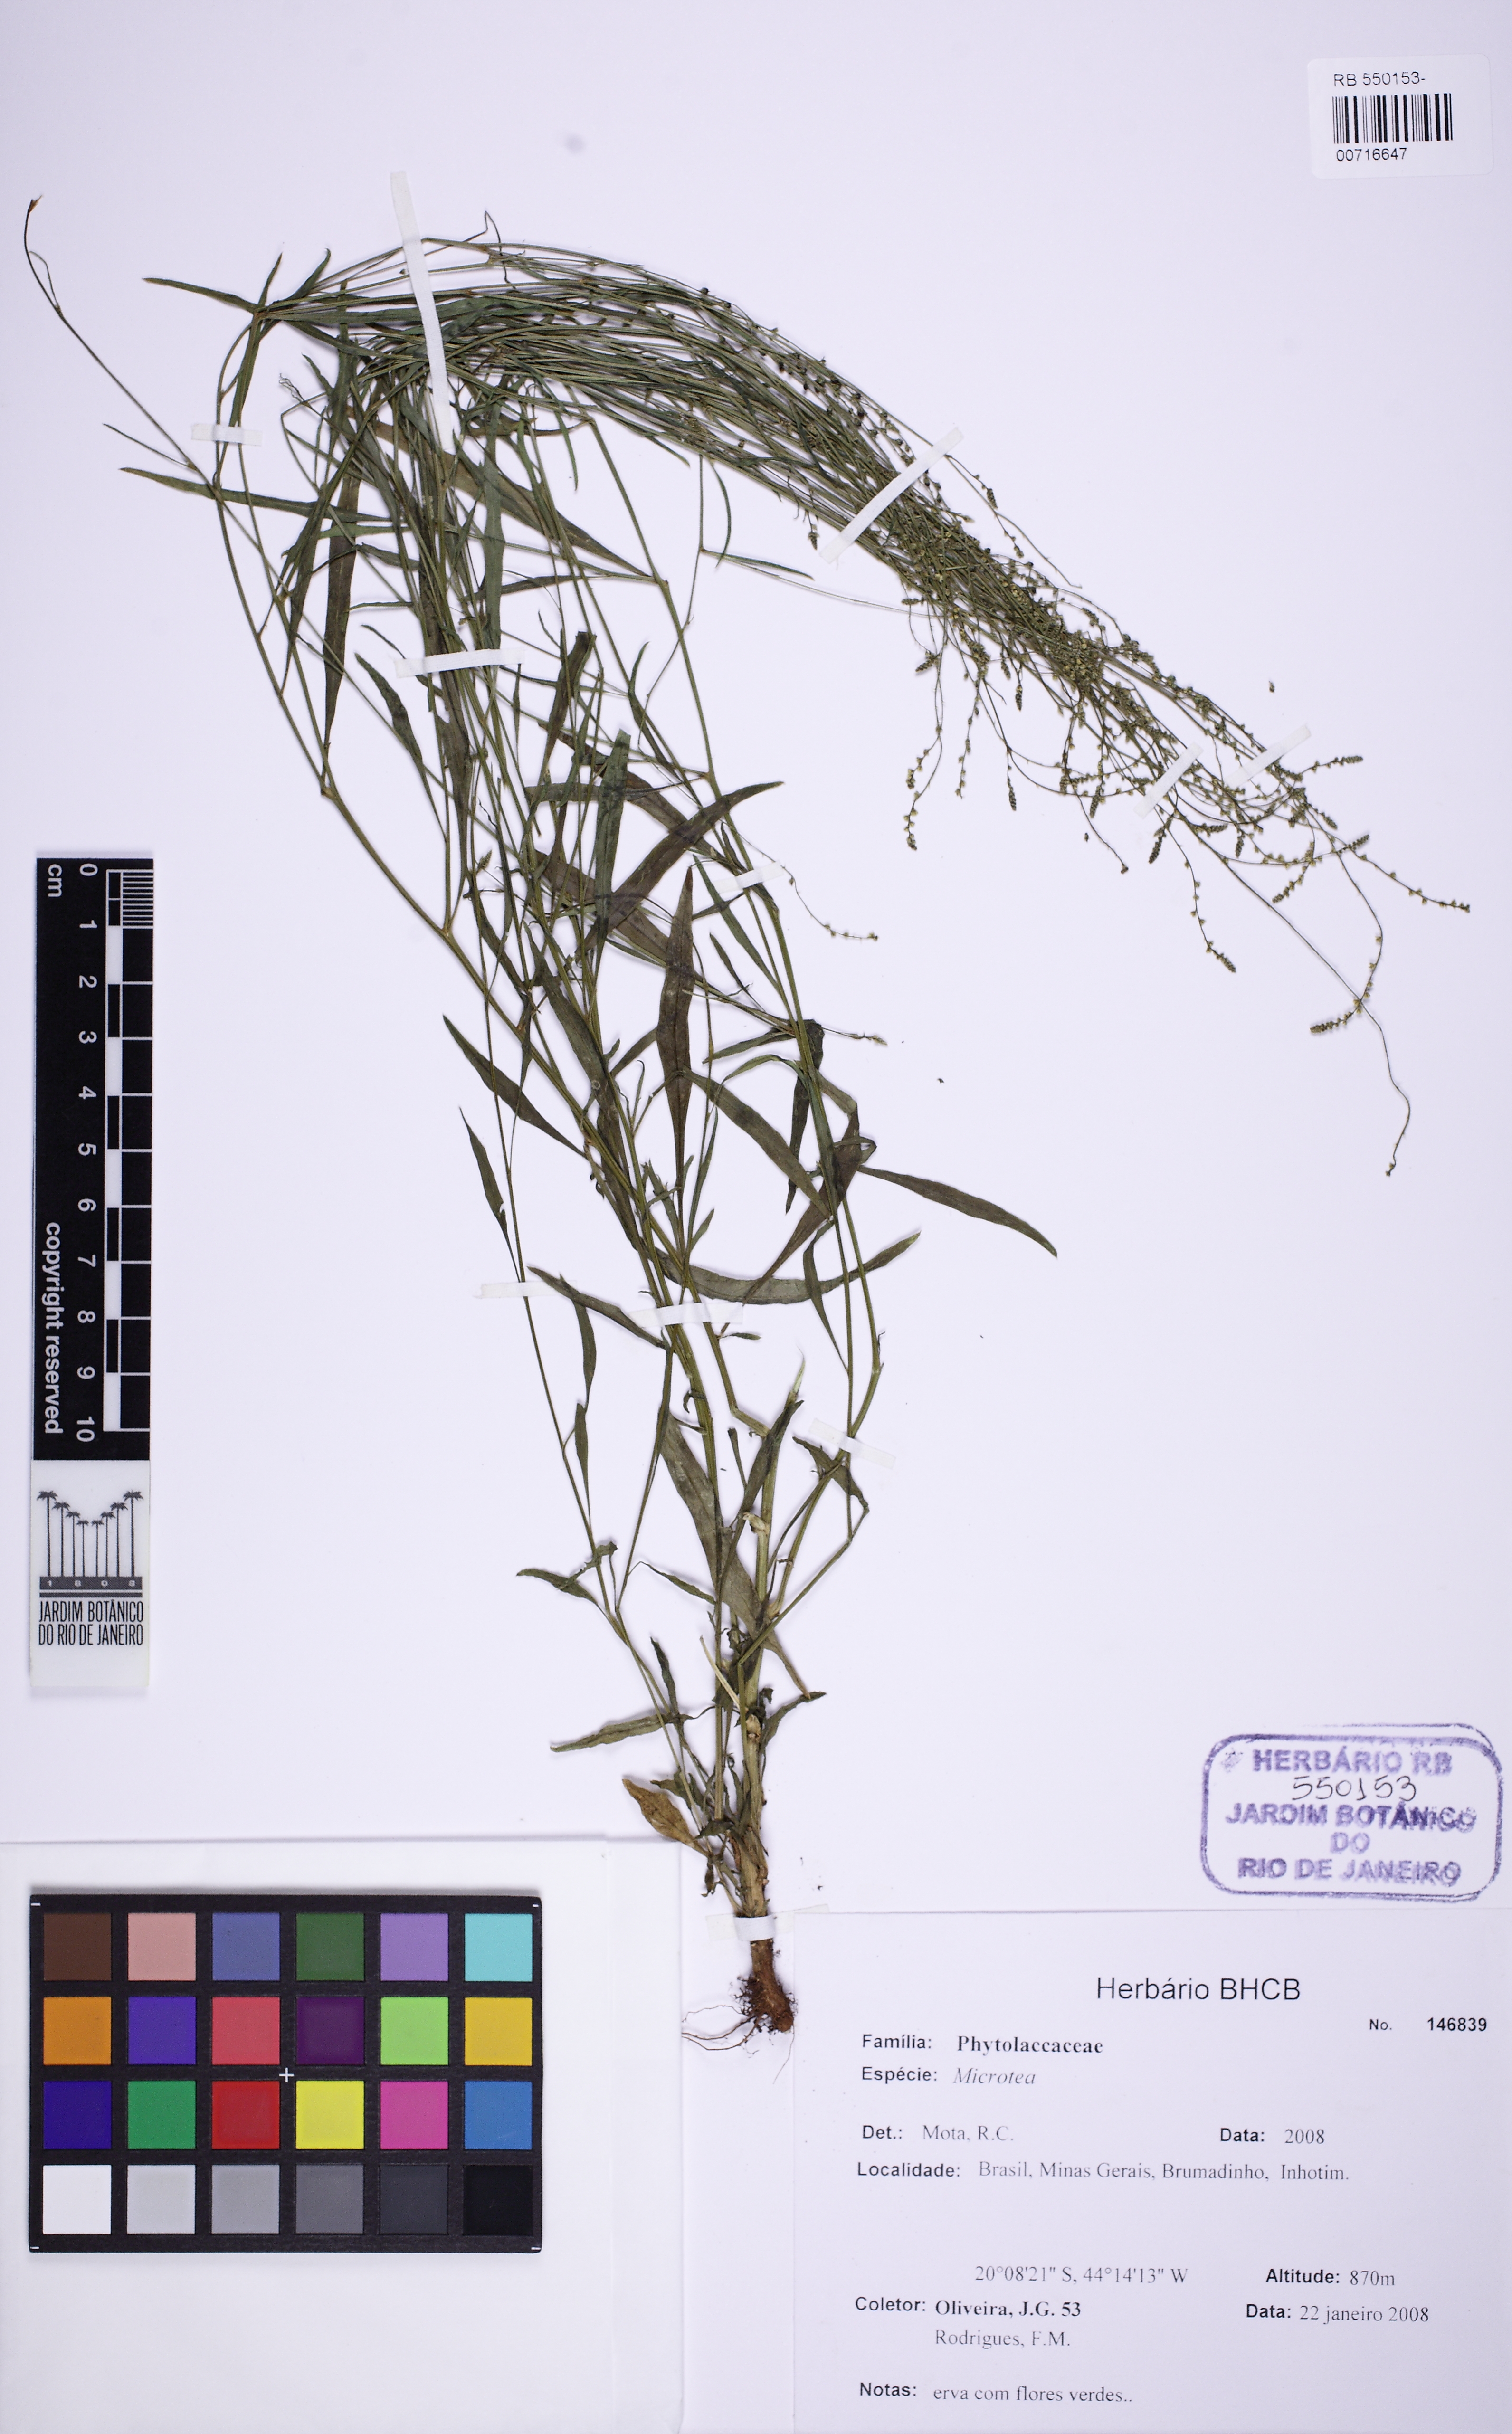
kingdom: Plantae
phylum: Tracheophyta
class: Magnoliopsida
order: Caryophyllales
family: Microteaceae
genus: Microtea
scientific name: Microtea
